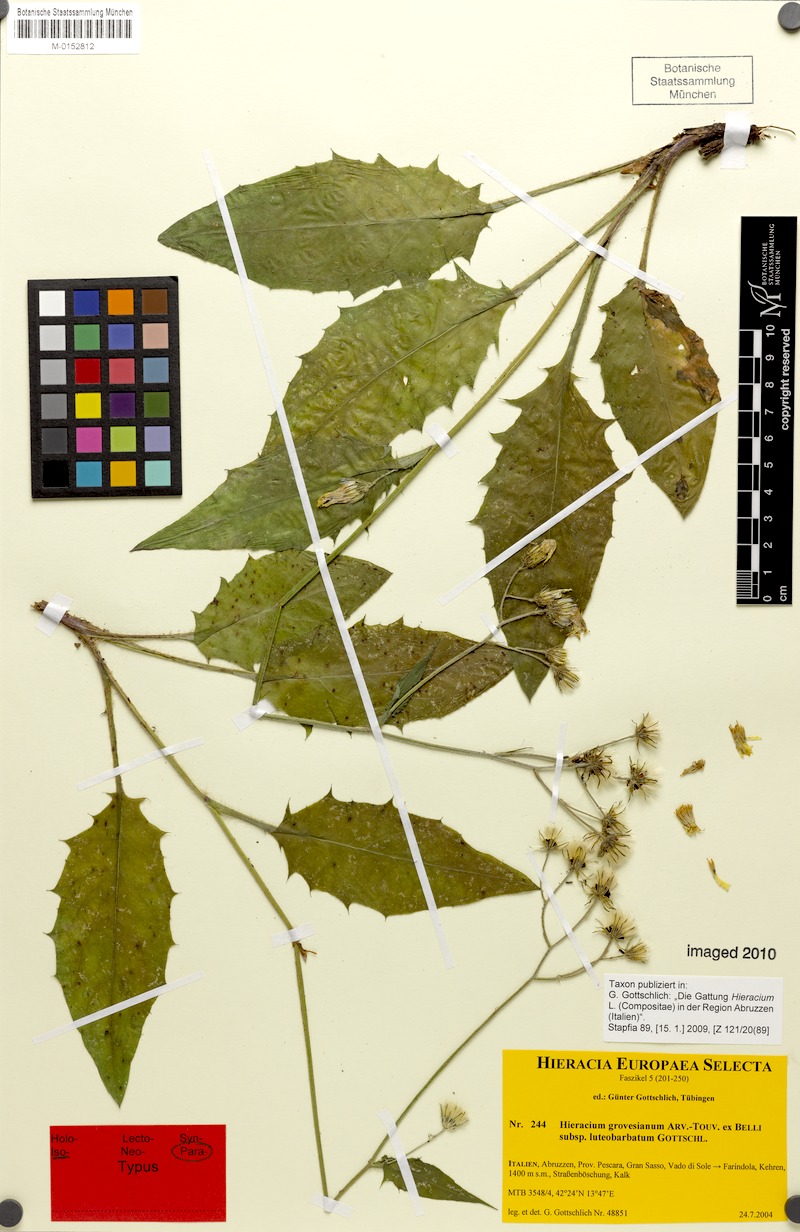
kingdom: Plantae
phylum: Tracheophyta
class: Magnoliopsida
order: Asterales
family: Asteraceae
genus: Hieracium
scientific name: Hieracium grovesianum
